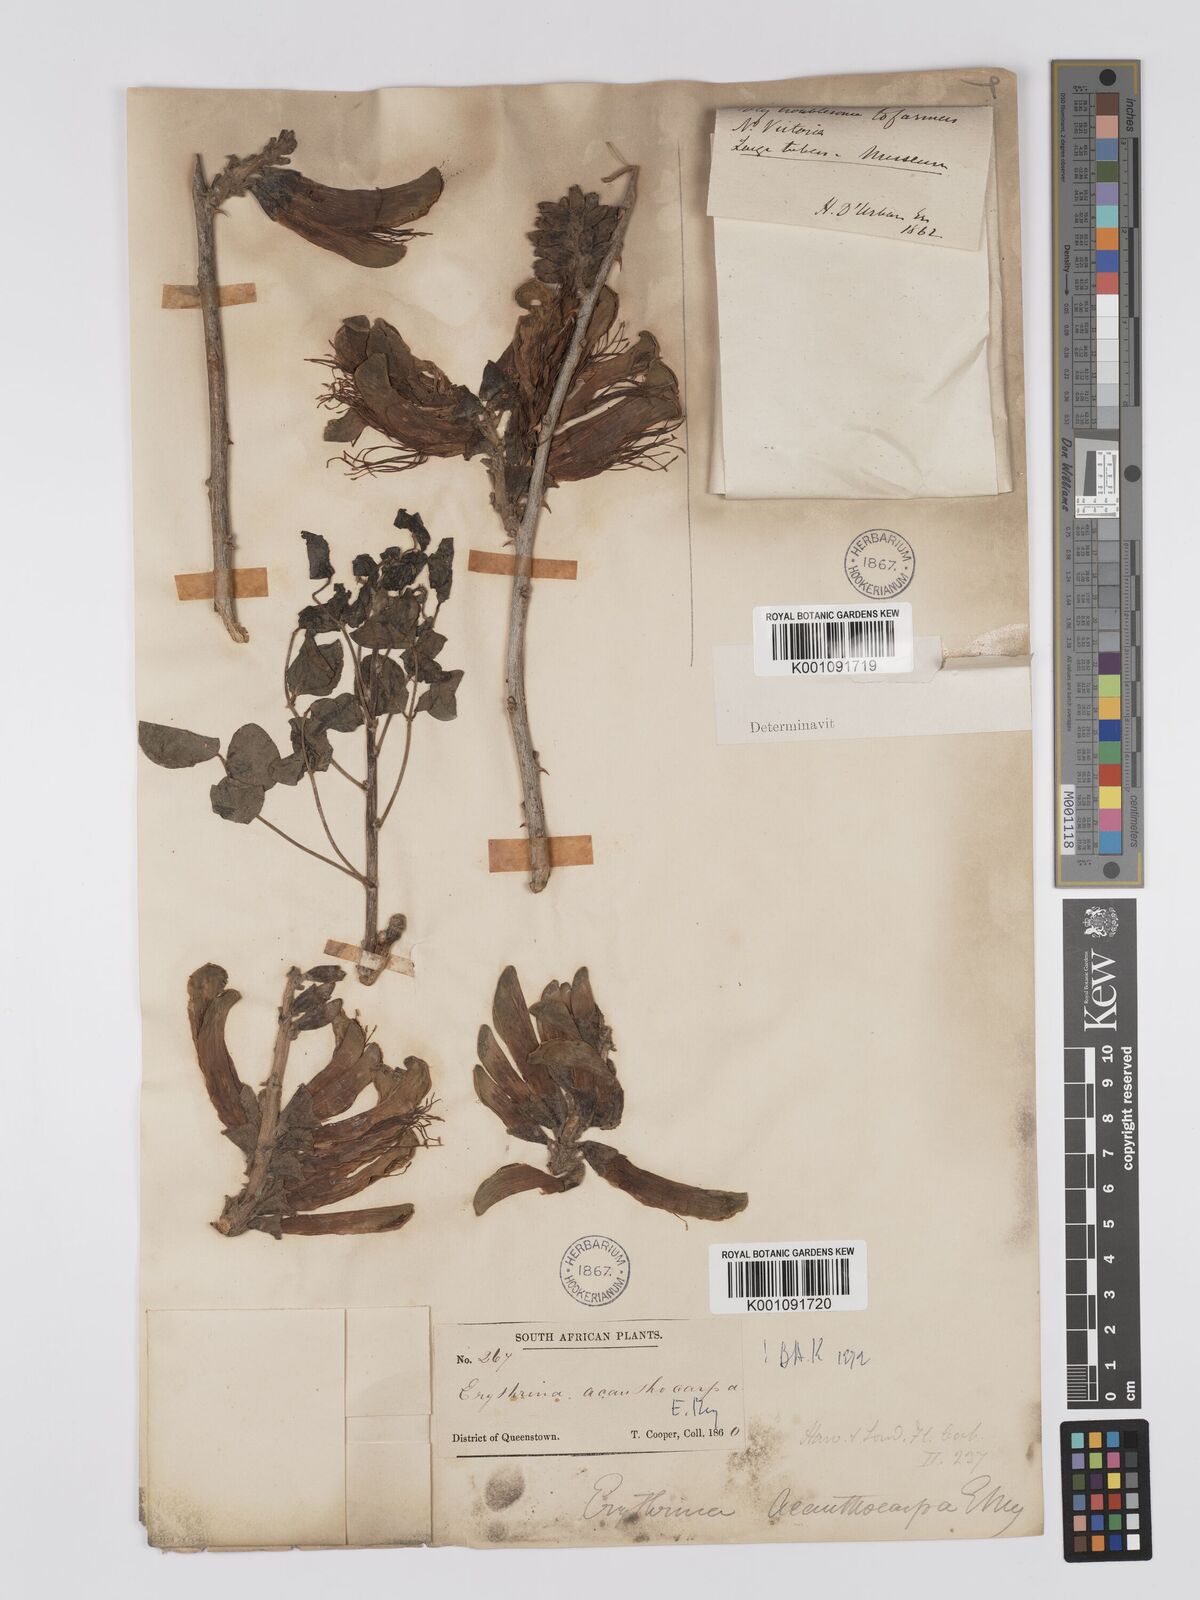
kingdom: Plantae
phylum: Tracheophyta
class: Magnoliopsida
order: Fabales
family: Fabaceae
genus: Erythrina
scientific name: Erythrina acanthocarpa
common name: Thorny coraltree
